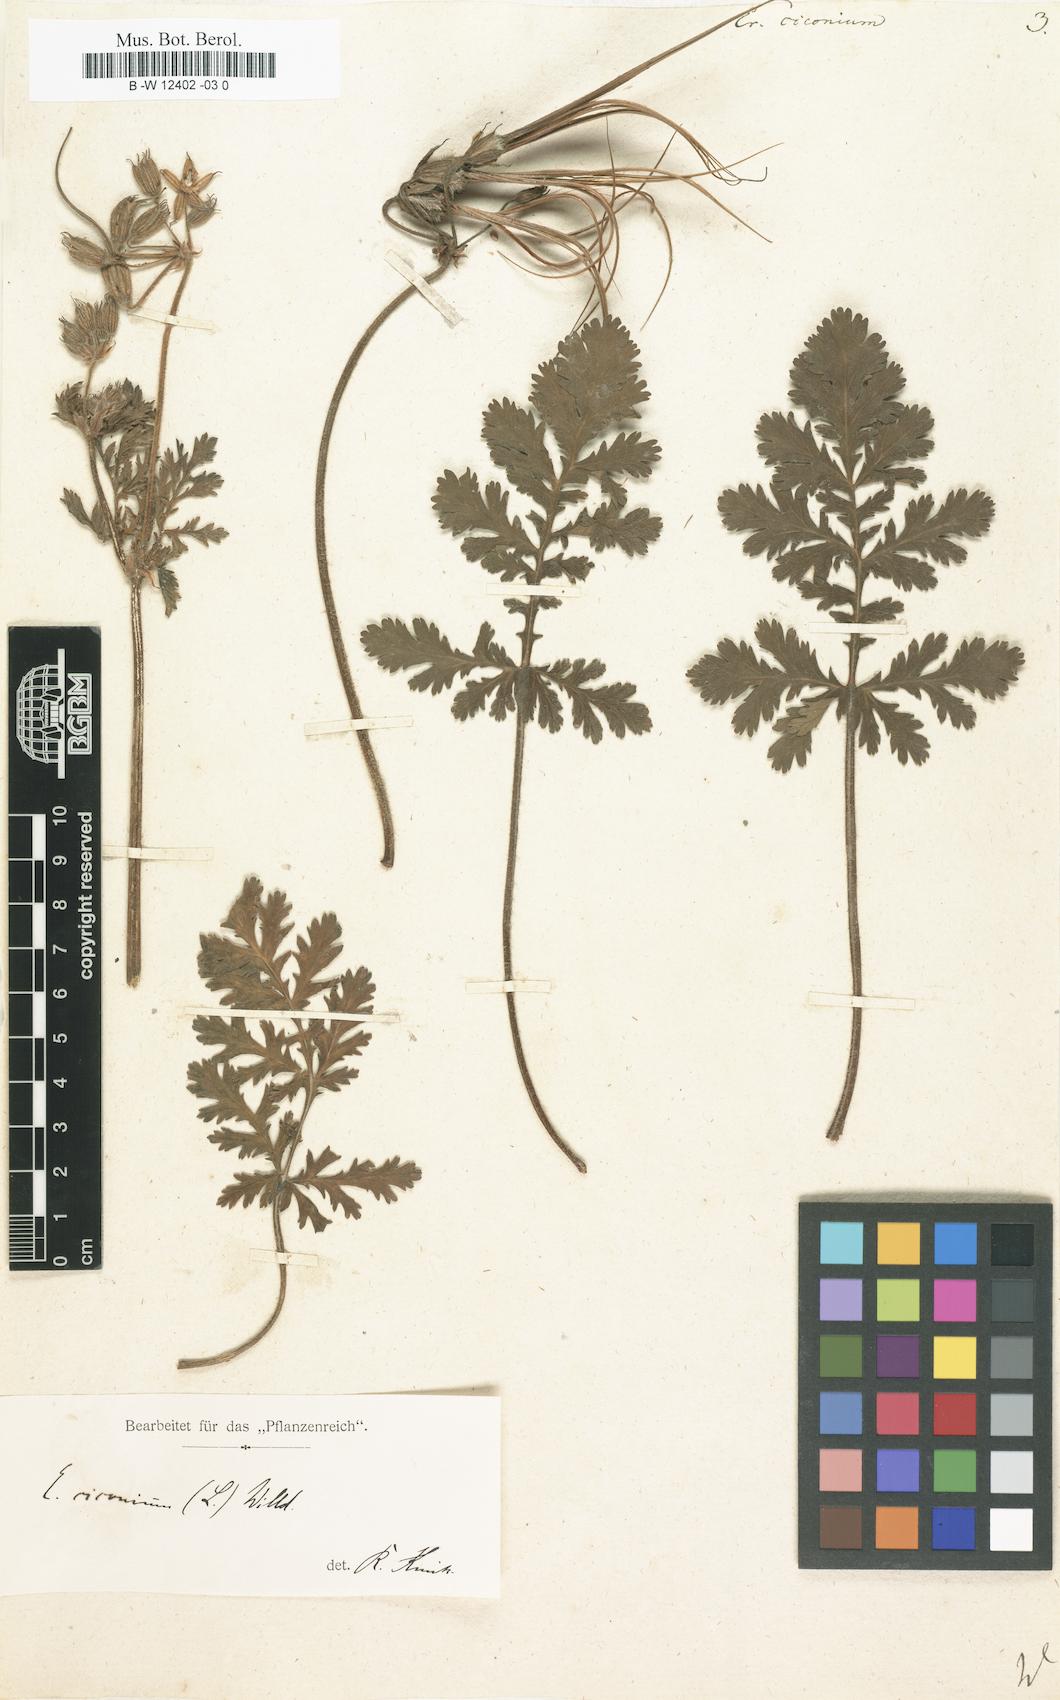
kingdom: Plantae
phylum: Tracheophyta
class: Magnoliopsida
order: Geraniales
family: Geraniaceae
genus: Erodium
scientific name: Erodium ciconium
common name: Common stork's bill
